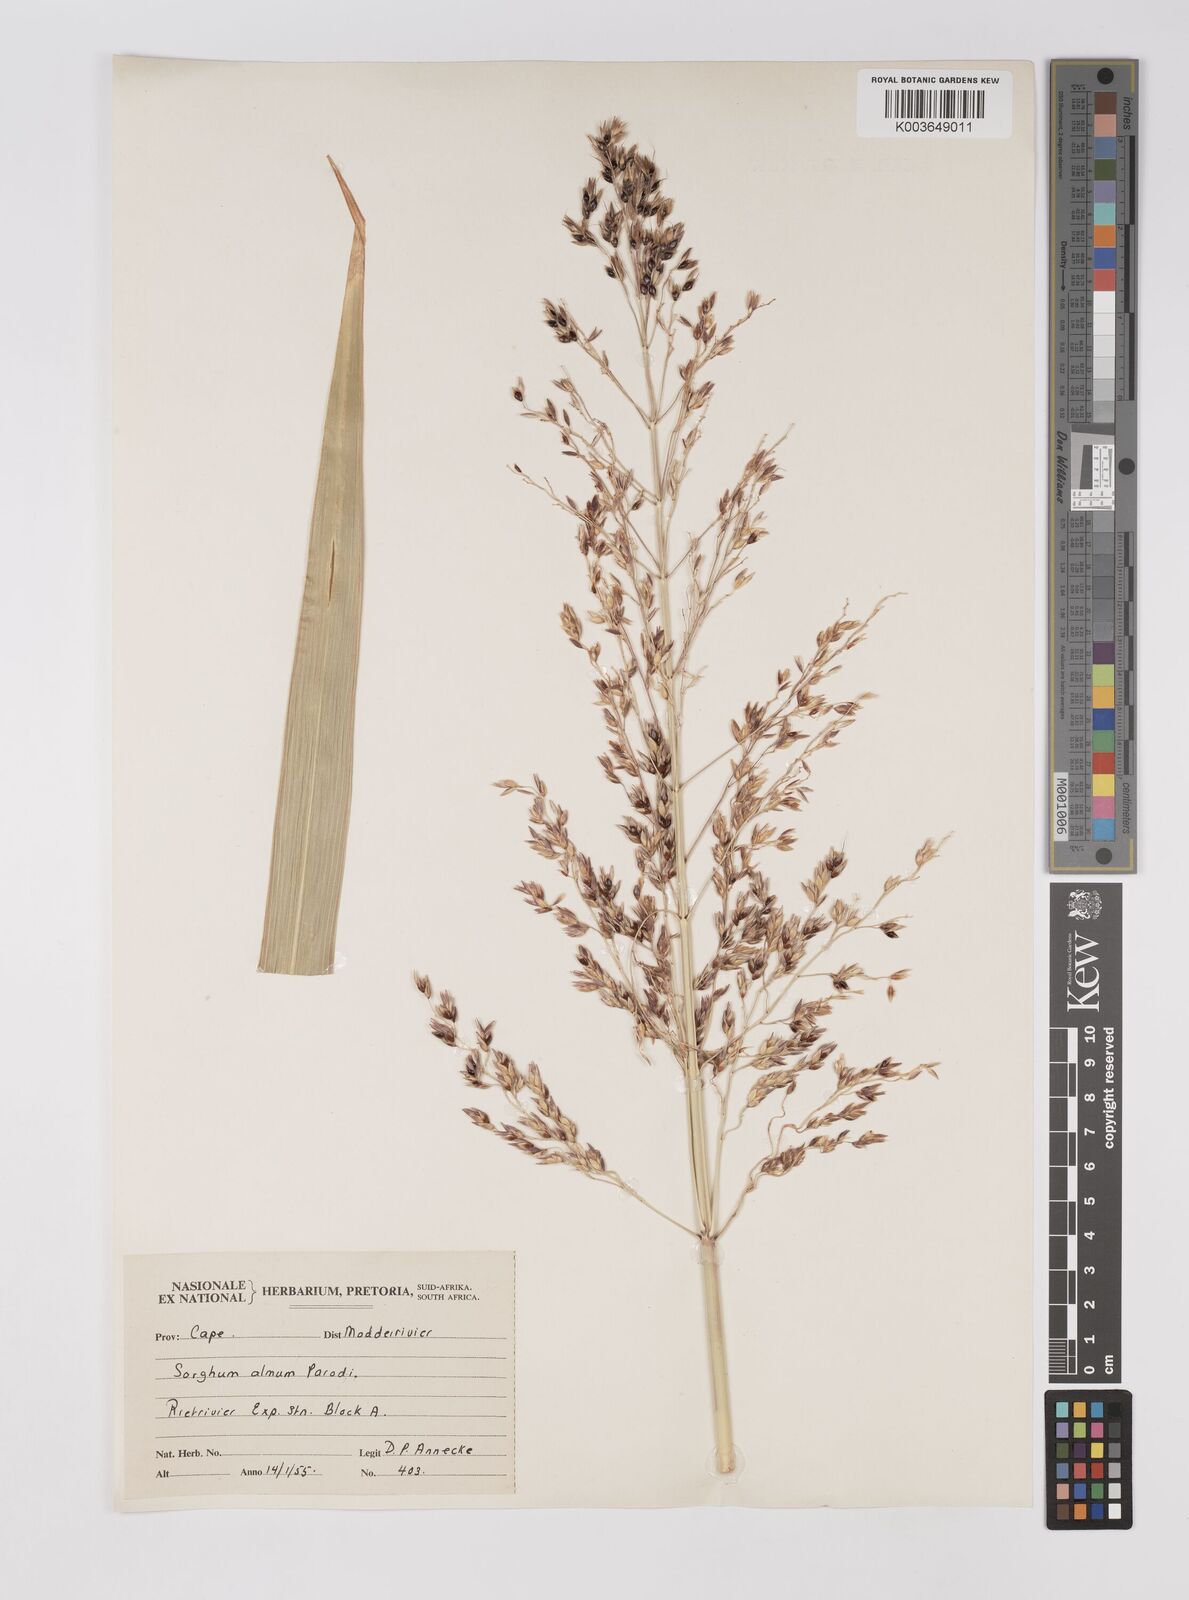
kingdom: Plantae
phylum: Tracheophyta
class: Liliopsida
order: Poales
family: Poaceae
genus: Sorghum
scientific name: Sorghum almum
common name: Columbus grass
